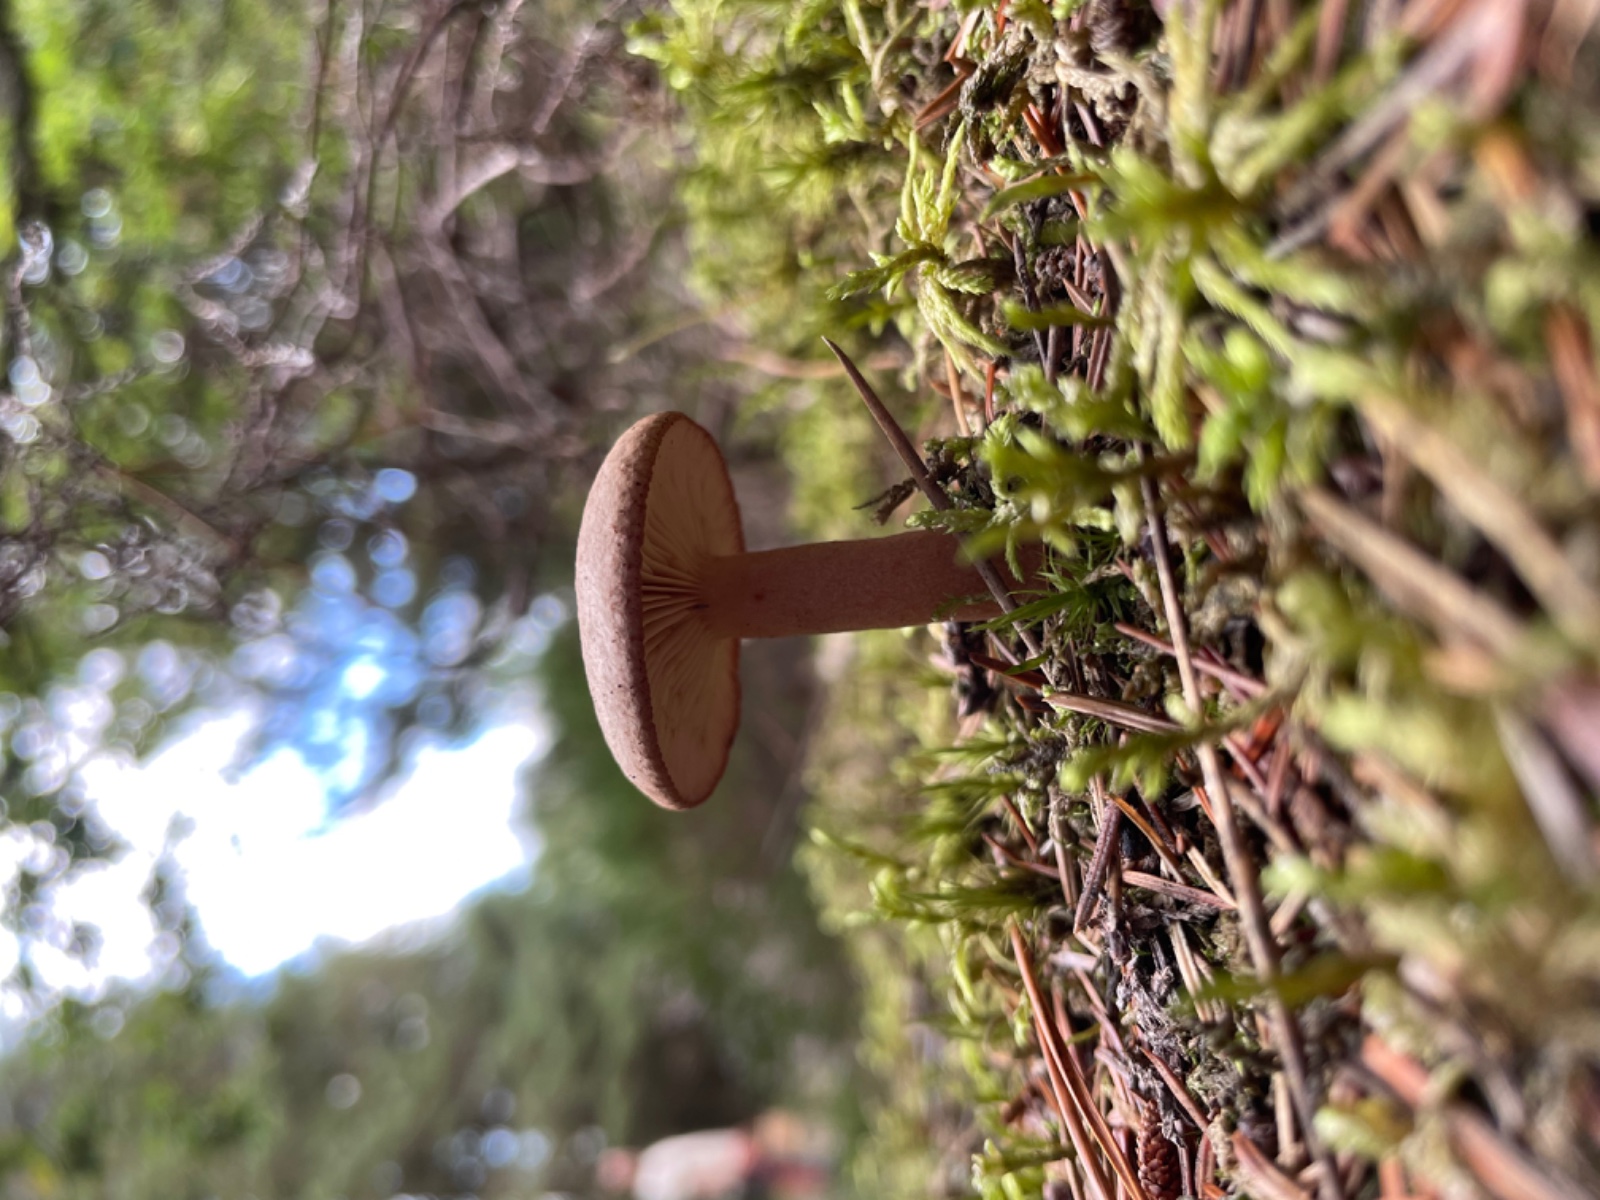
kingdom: Fungi
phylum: Basidiomycota
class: Agaricomycetes
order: Russulales
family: Russulaceae
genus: Lactarius
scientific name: Lactarius
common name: mælkehat
